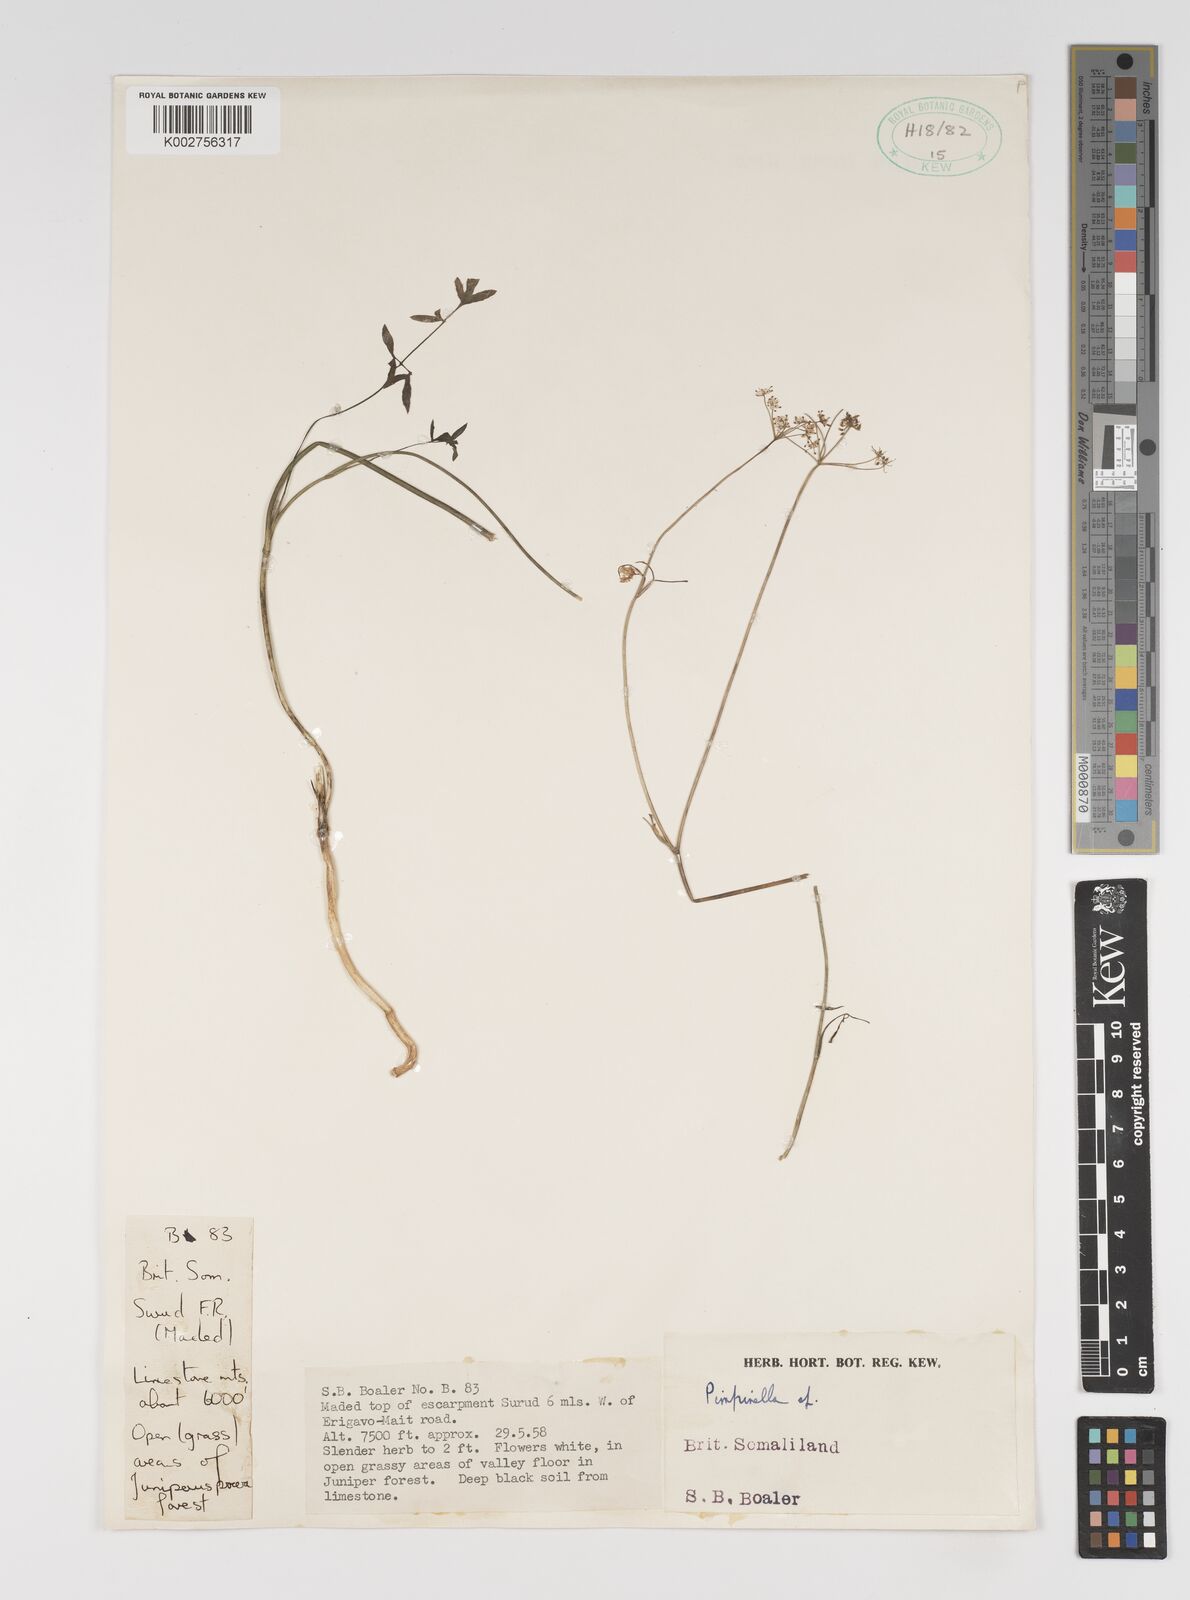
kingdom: Plantae
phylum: Tracheophyta
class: Magnoliopsida
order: Apiales
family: Apiaceae
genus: Pimpinella
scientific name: Pimpinella
